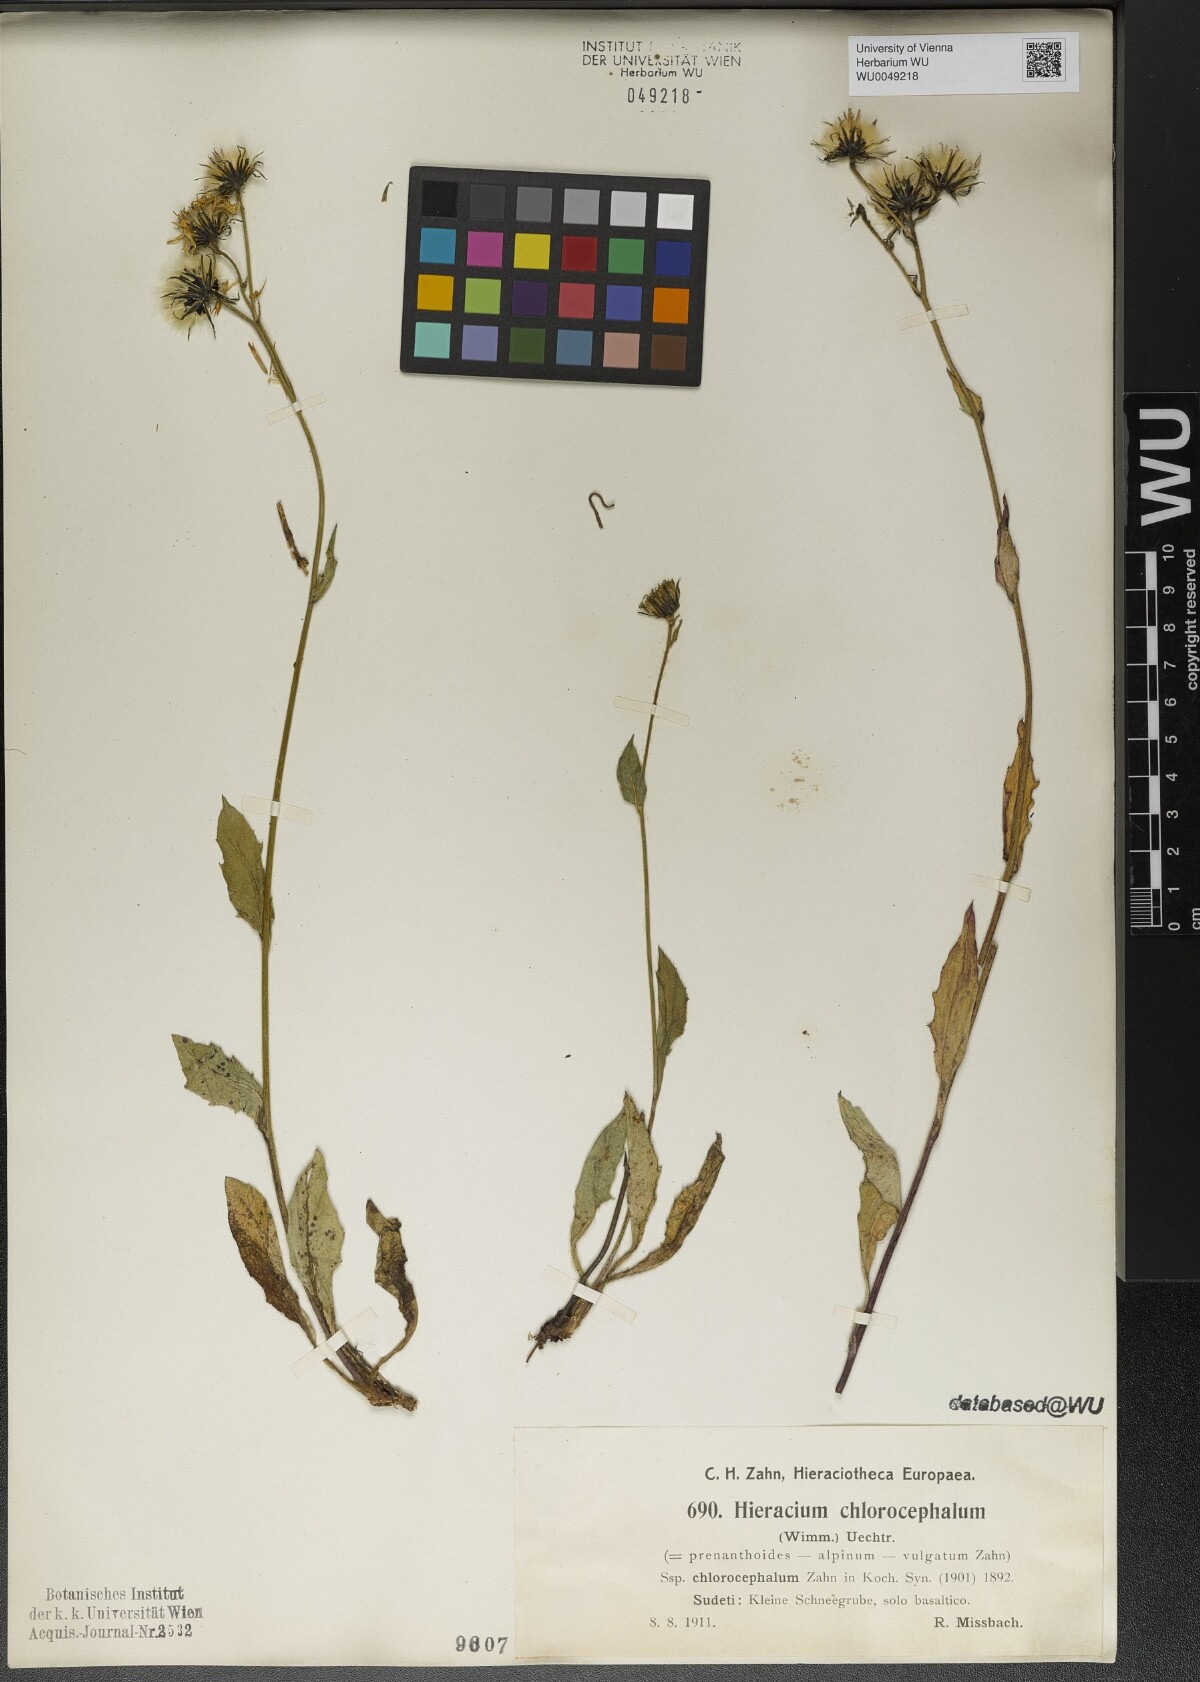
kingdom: Plantae
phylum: Tracheophyta
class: Magnoliopsida
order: Asterales
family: Asteraceae
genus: Hieracium
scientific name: Hieracium chlorocephalum
